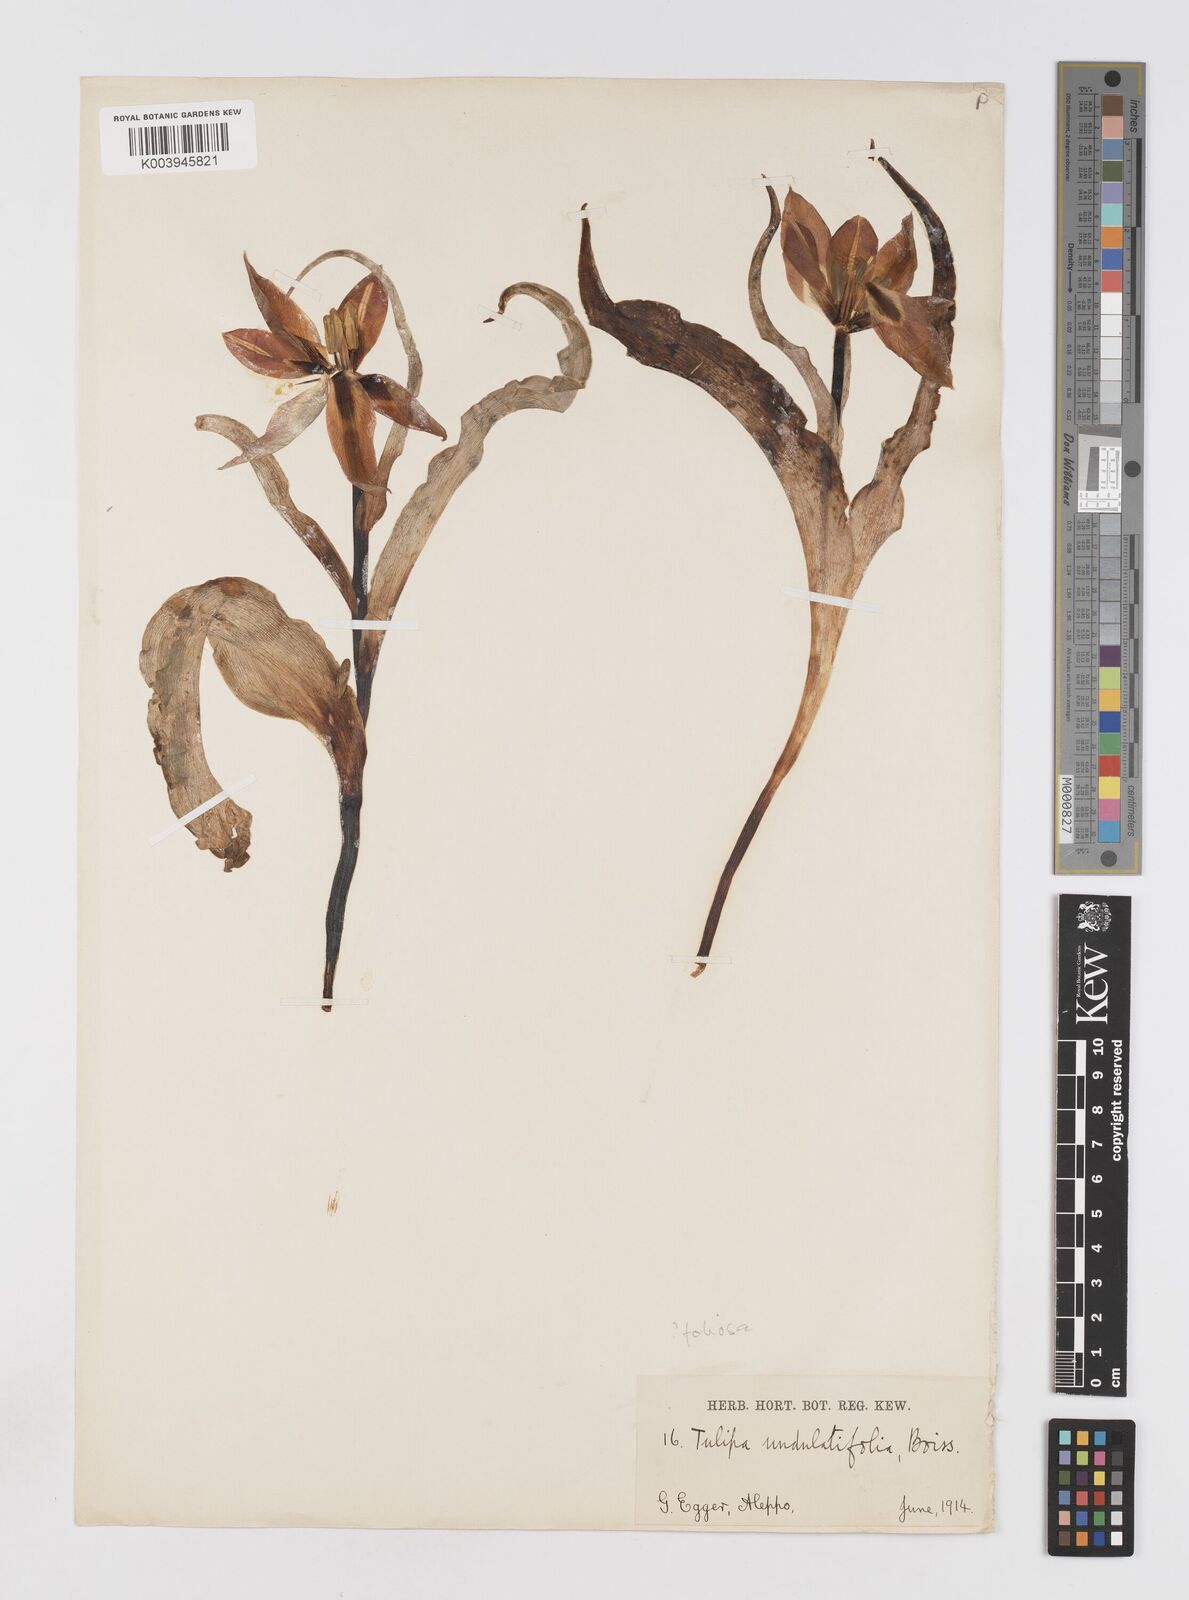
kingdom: Plantae
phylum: Tracheophyta
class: Liliopsida
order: Liliales
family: Liliaceae
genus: Tulipa
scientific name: Tulipa aleppensis
